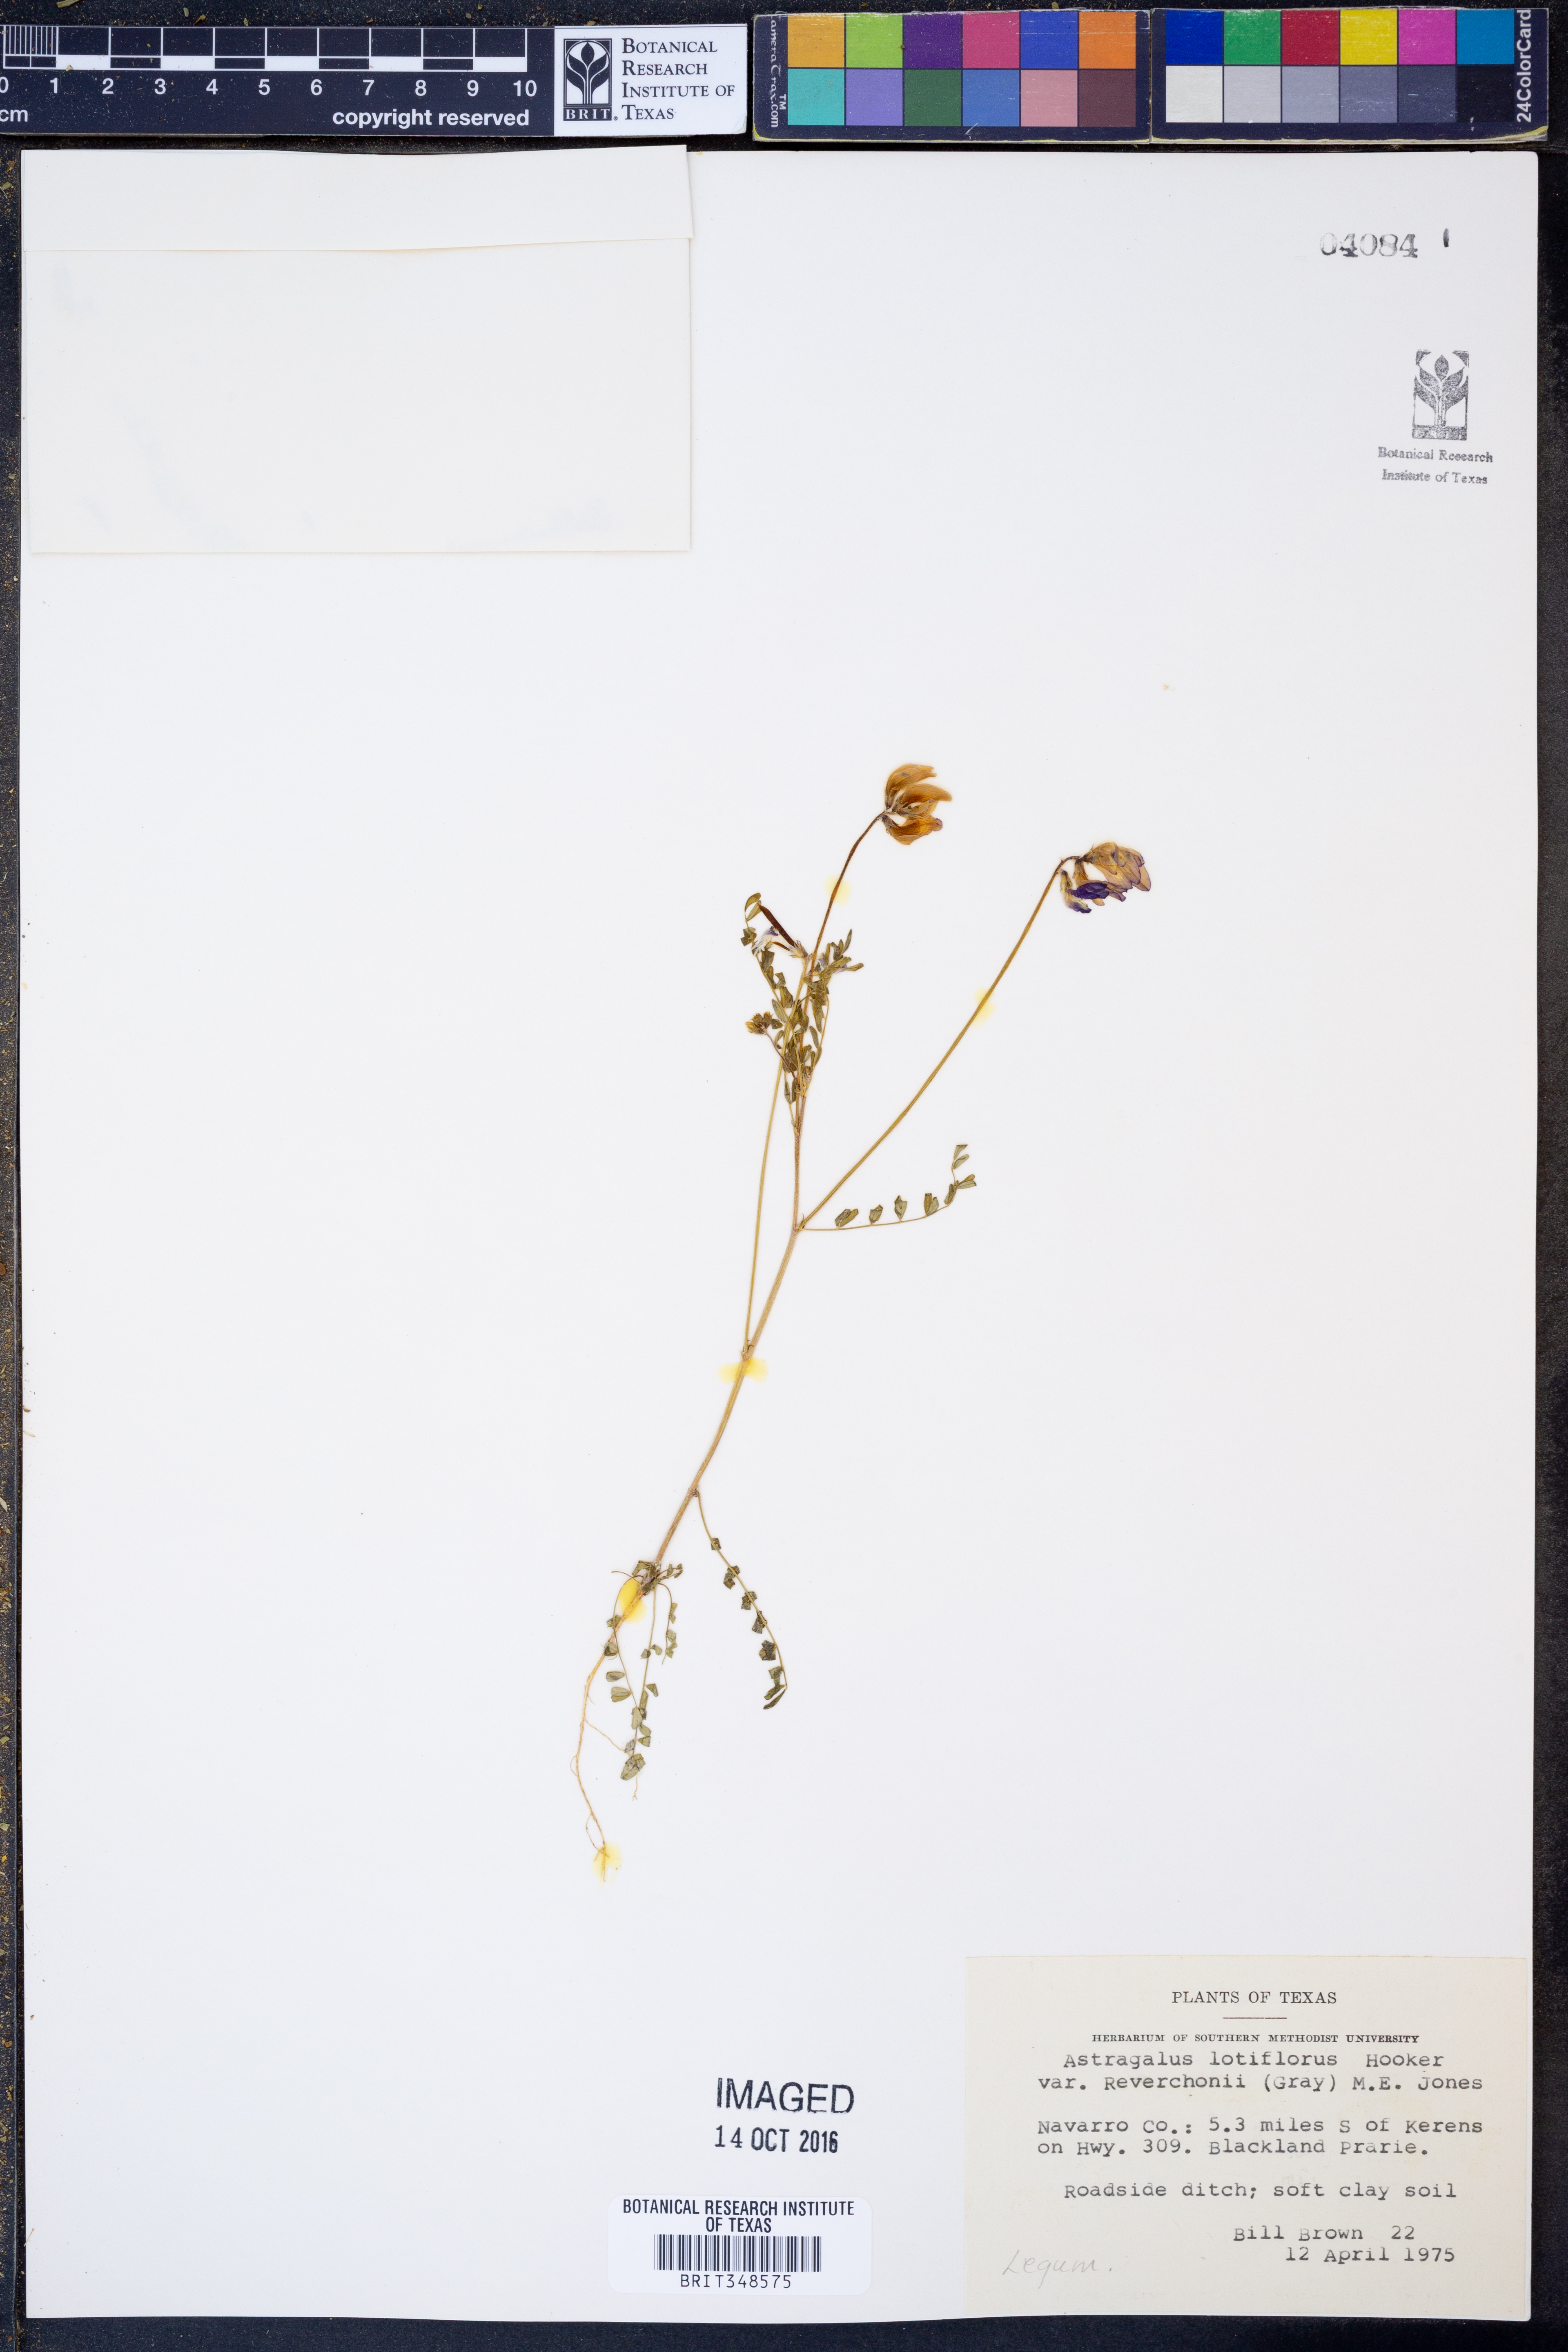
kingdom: Plantae
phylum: Tracheophyta
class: Magnoliopsida
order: Fabales
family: Fabaceae
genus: Astragalus
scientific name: Astragalus lotiflorus
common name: Lotus milk-vetch
